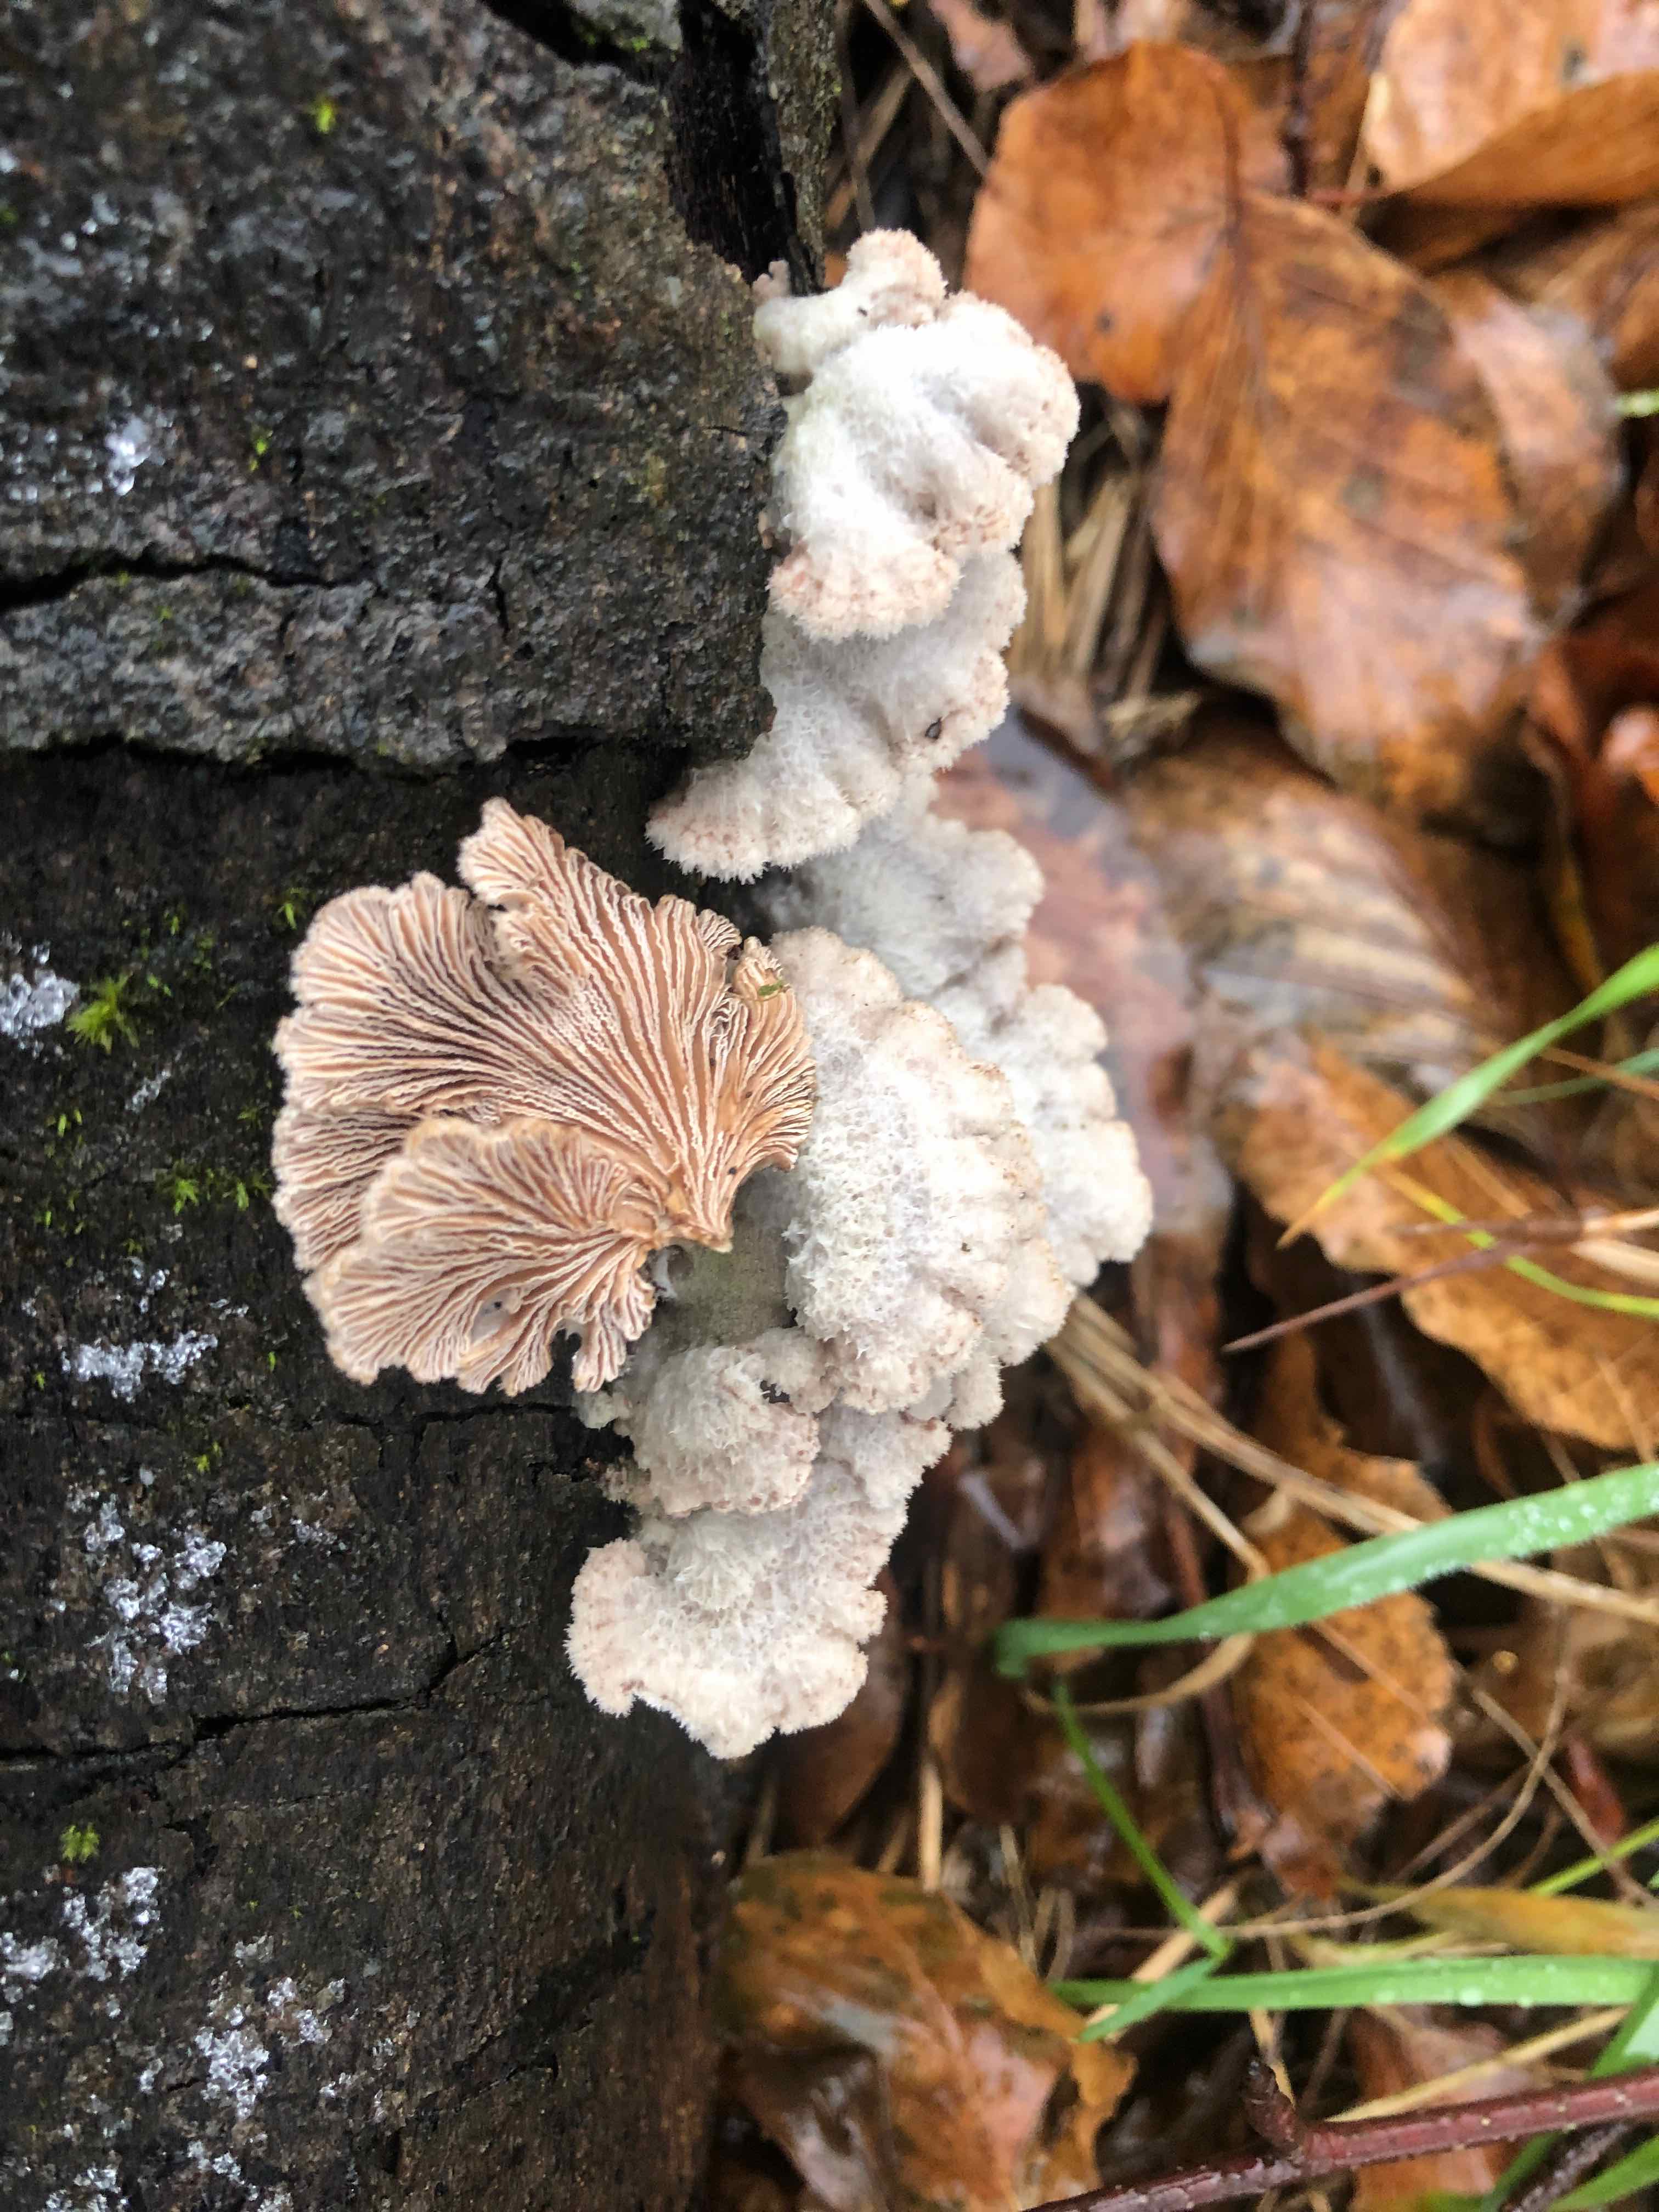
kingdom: Fungi
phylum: Basidiomycota
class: Agaricomycetes
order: Agaricales
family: Schizophyllaceae
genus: Schizophyllum
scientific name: Schizophyllum commune
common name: kløvblad
